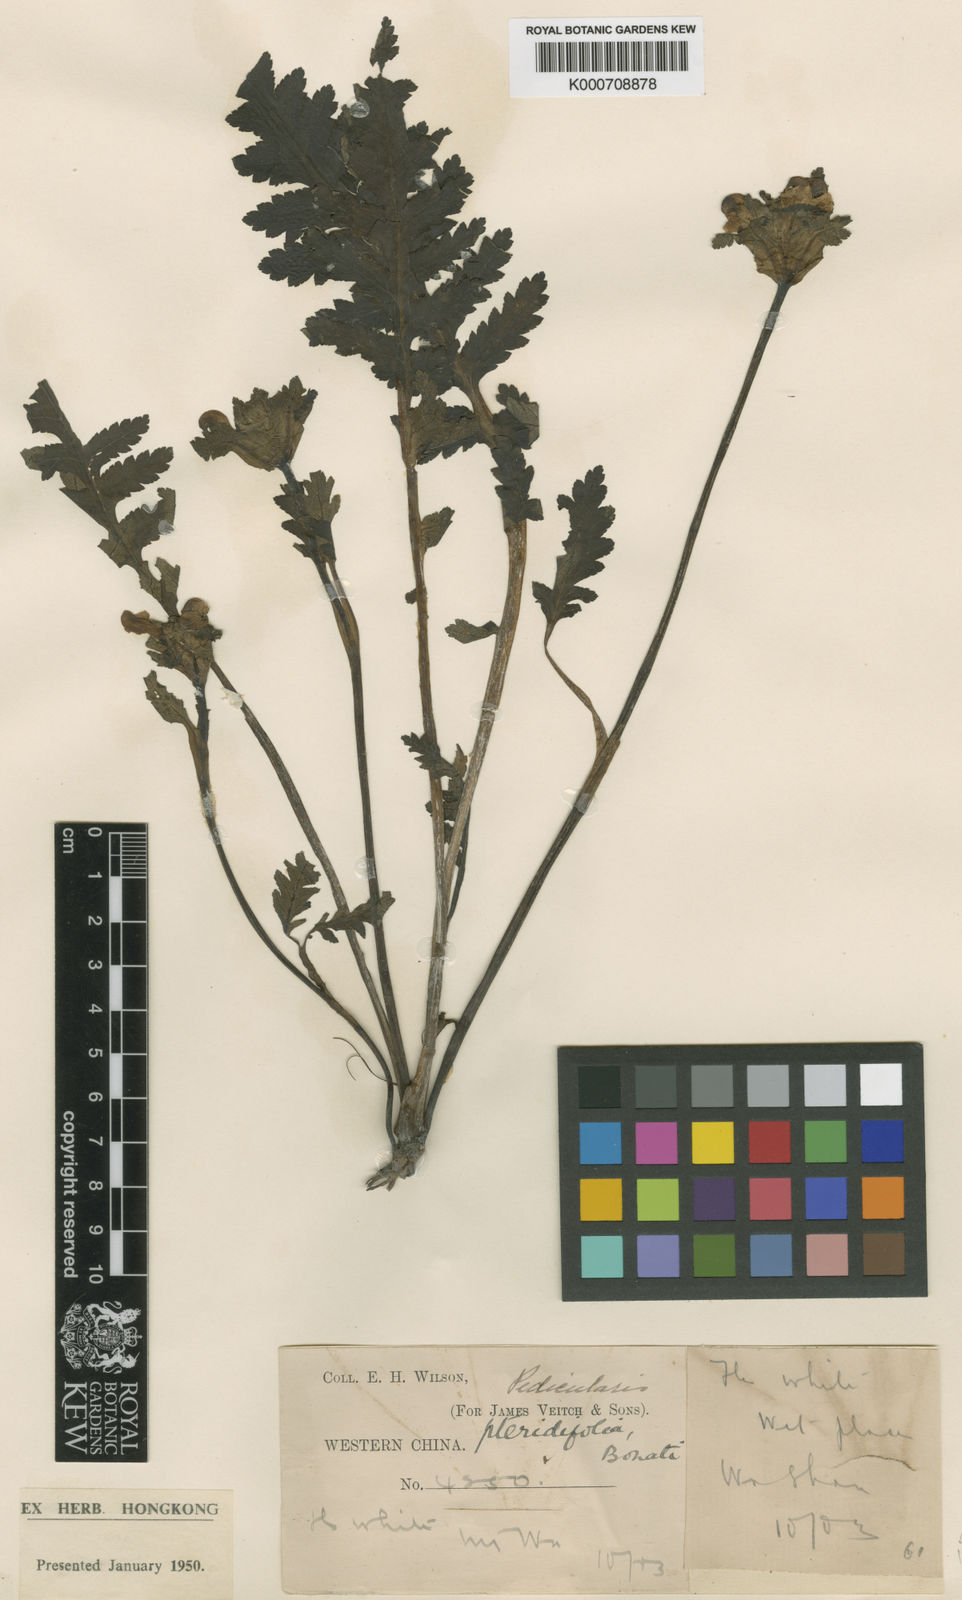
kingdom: Plantae
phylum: Tracheophyta
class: Magnoliopsida
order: Lamiales
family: Orobanchaceae
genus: Pedicularis
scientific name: Pedicularis pteridifolia
